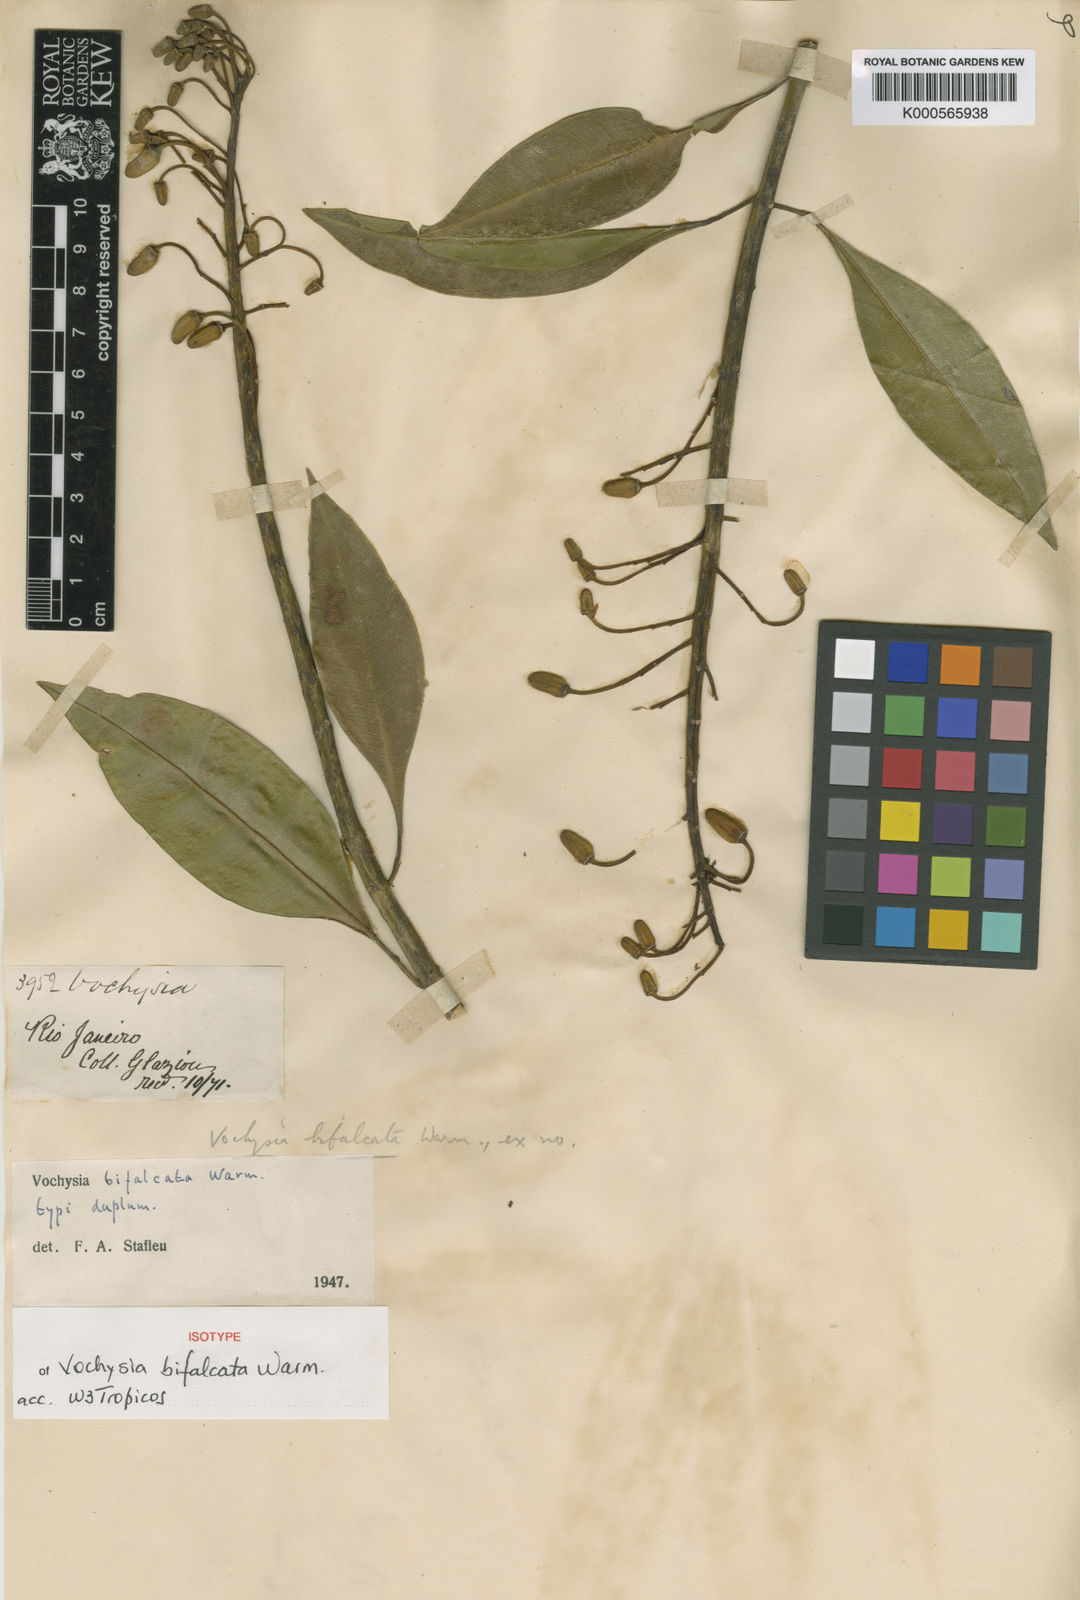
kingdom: Plantae
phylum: Tracheophyta
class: Magnoliopsida
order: Myrtales
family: Vochysiaceae
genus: Vochysia
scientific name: Vochysia bifalcata
